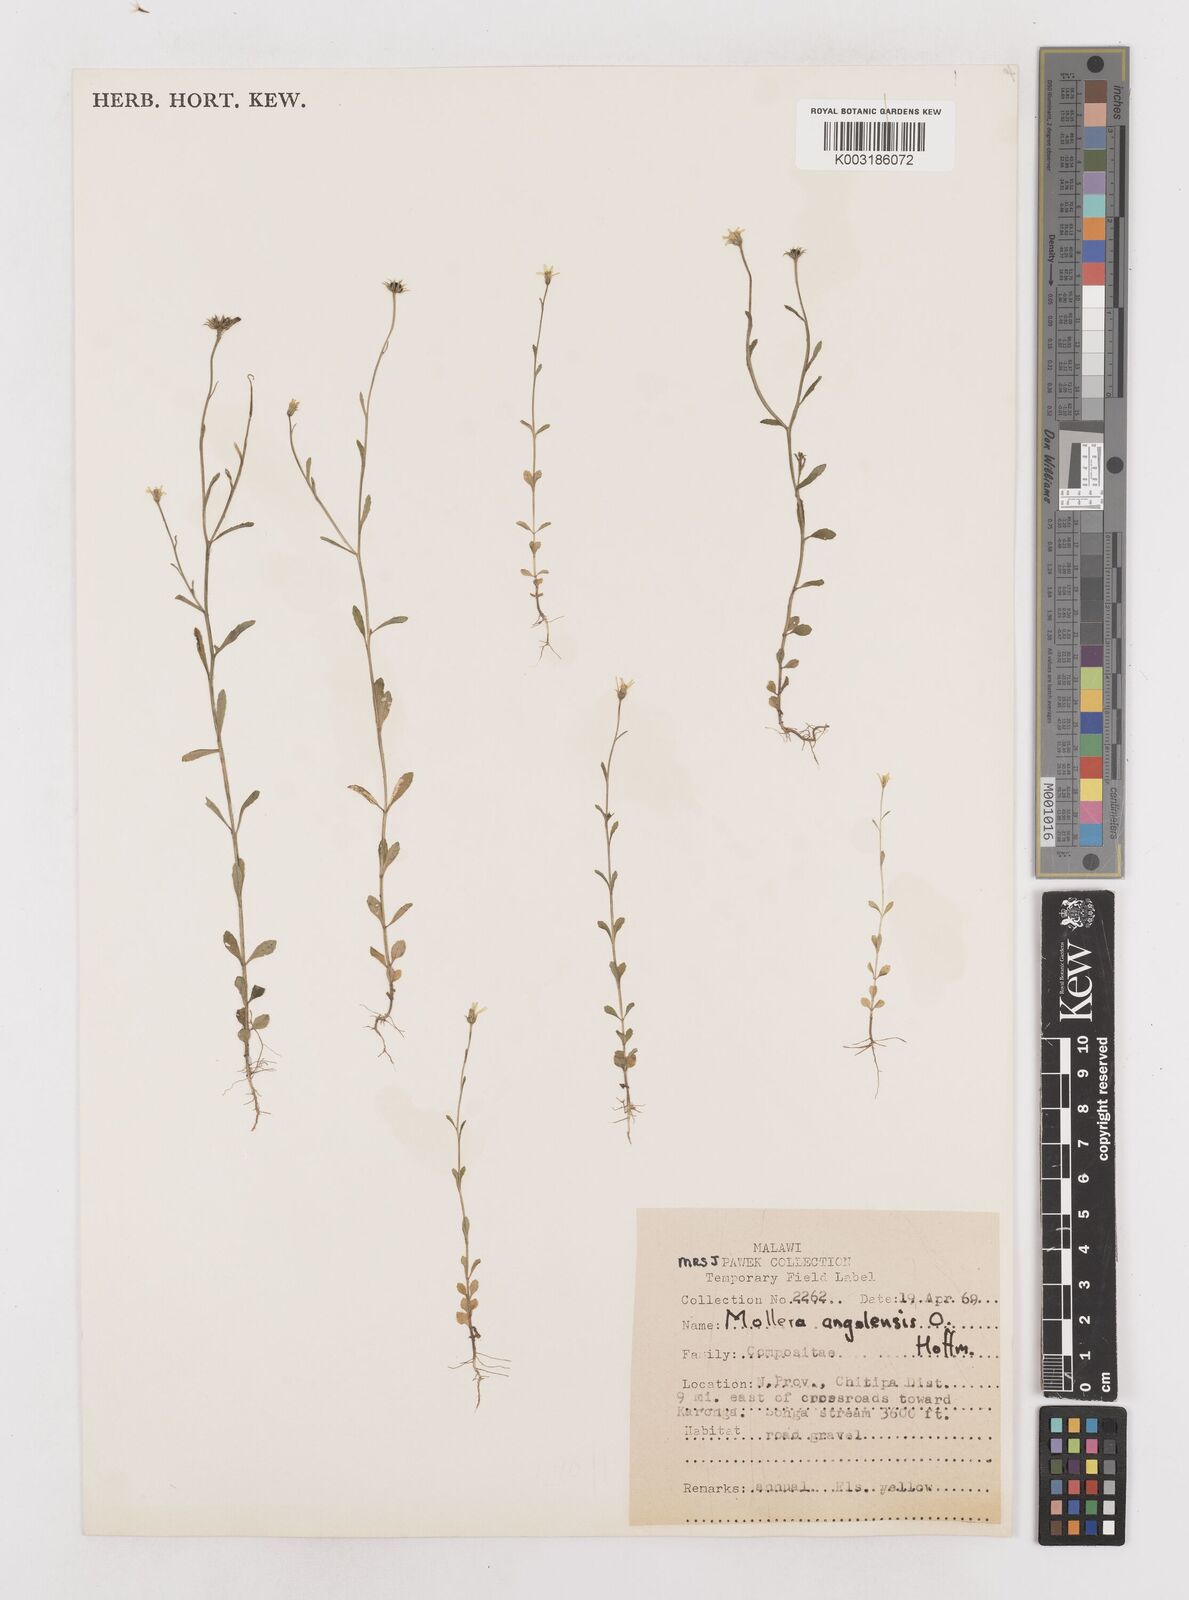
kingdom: Plantae
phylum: Tracheophyta
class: Magnoliopsida
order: Asterales
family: Asteraceae
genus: Calostephane
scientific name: Calostephane angolensis
